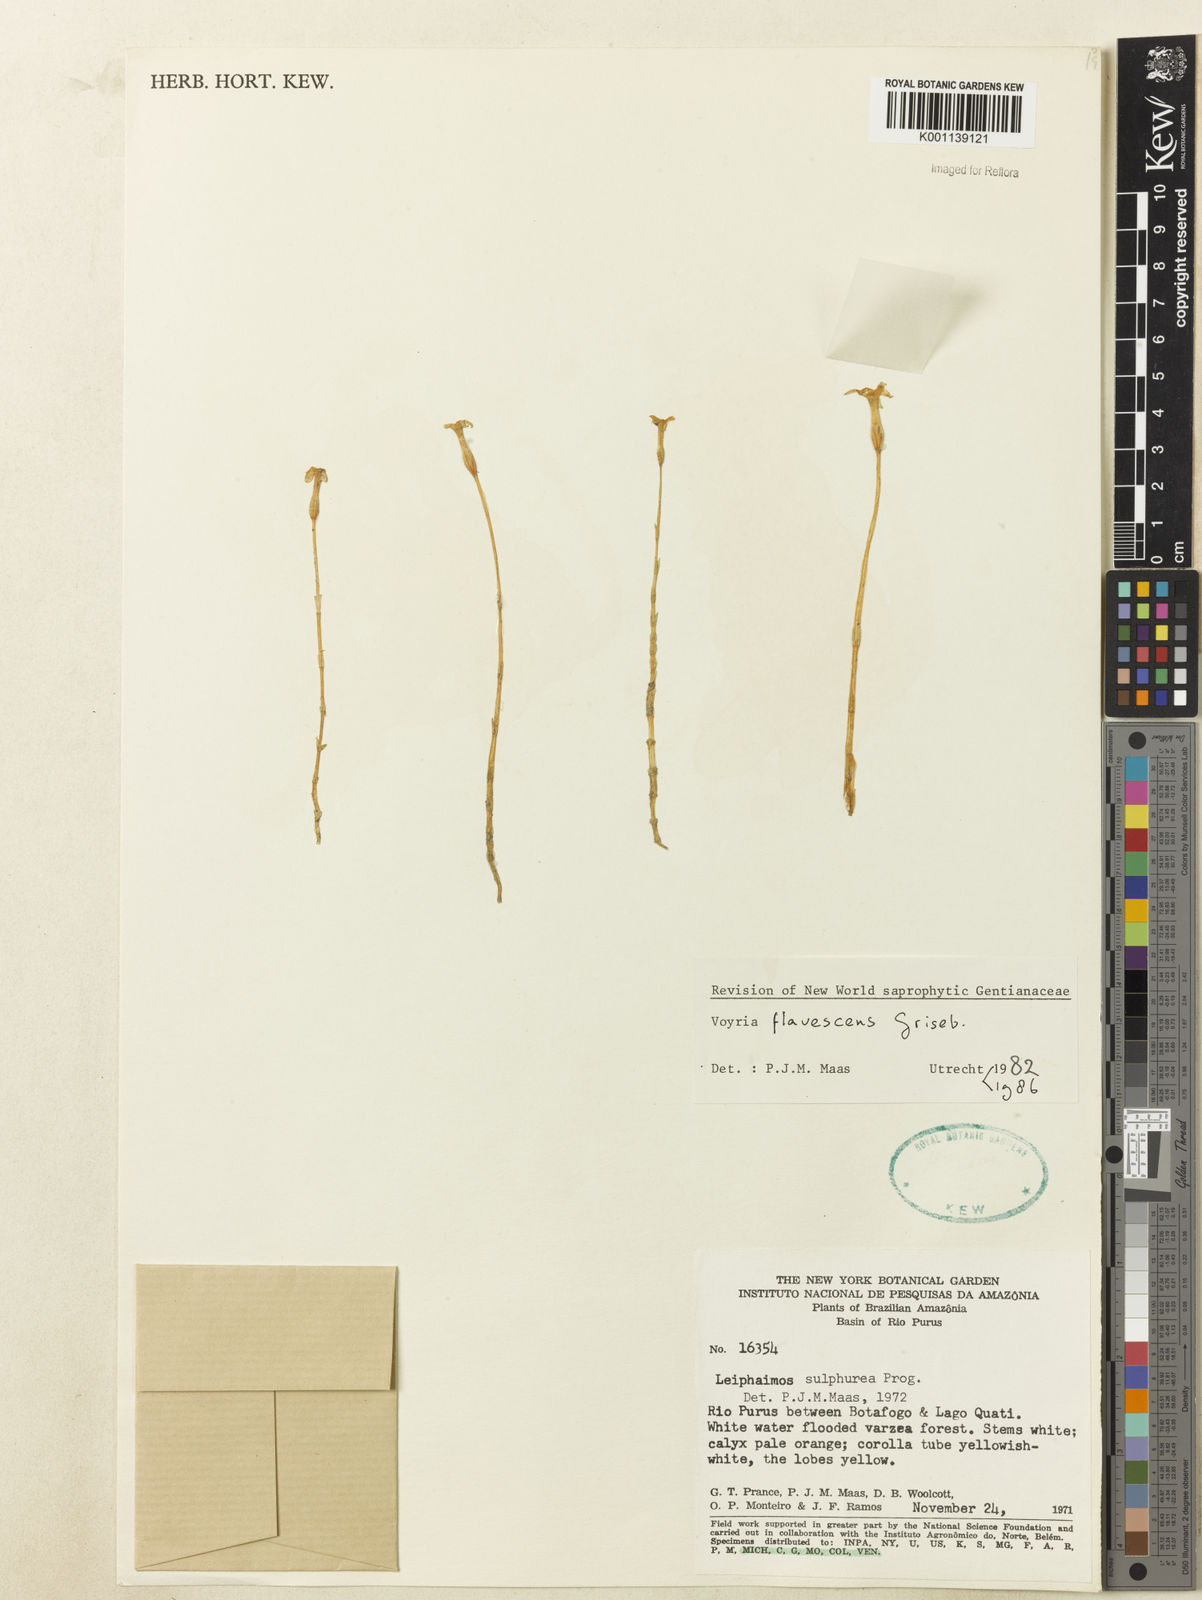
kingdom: Plantae
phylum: Tracheophyta
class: Magnoliopsida
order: Gentianales
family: Gentianaceae
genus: Voyria
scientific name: Voyria flavescens
